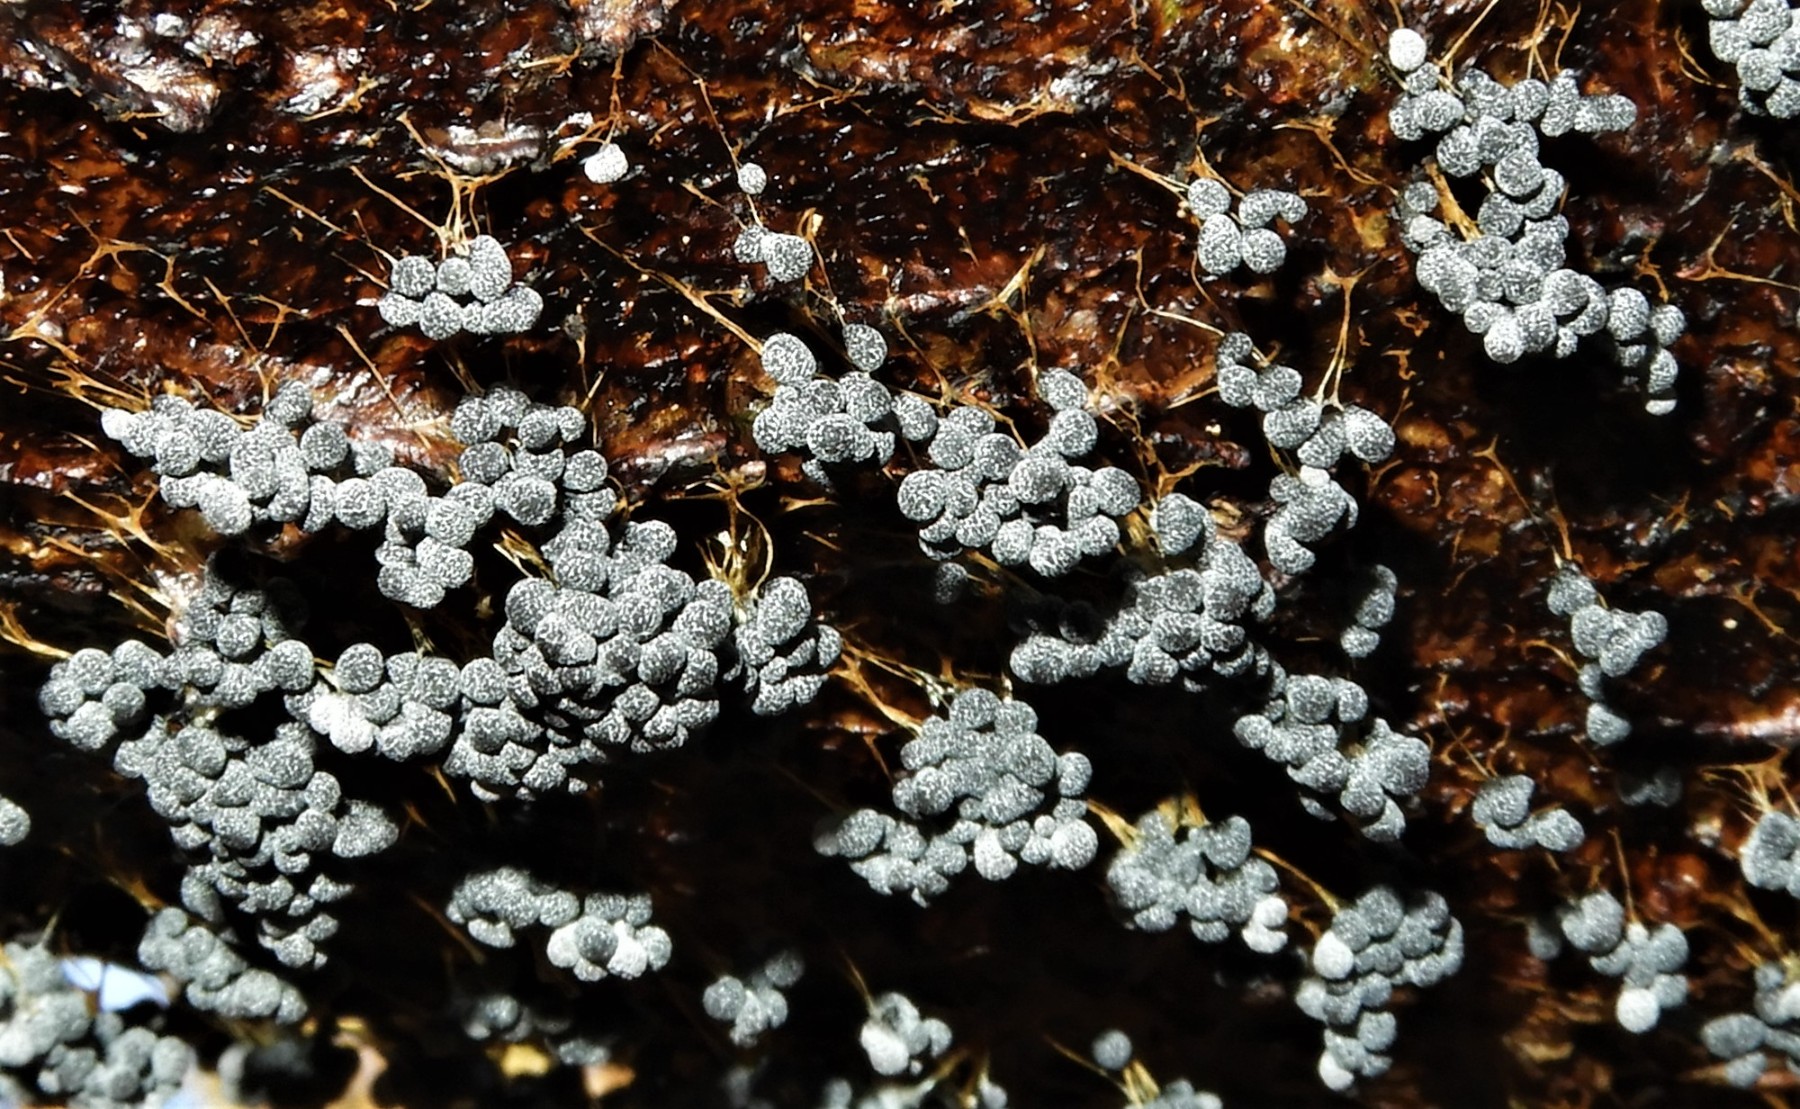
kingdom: Protozoa
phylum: Mycetozoa
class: Myxomycetes
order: Physarales
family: Physaraceae
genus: Badhamia
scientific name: Badhamia utricularis
